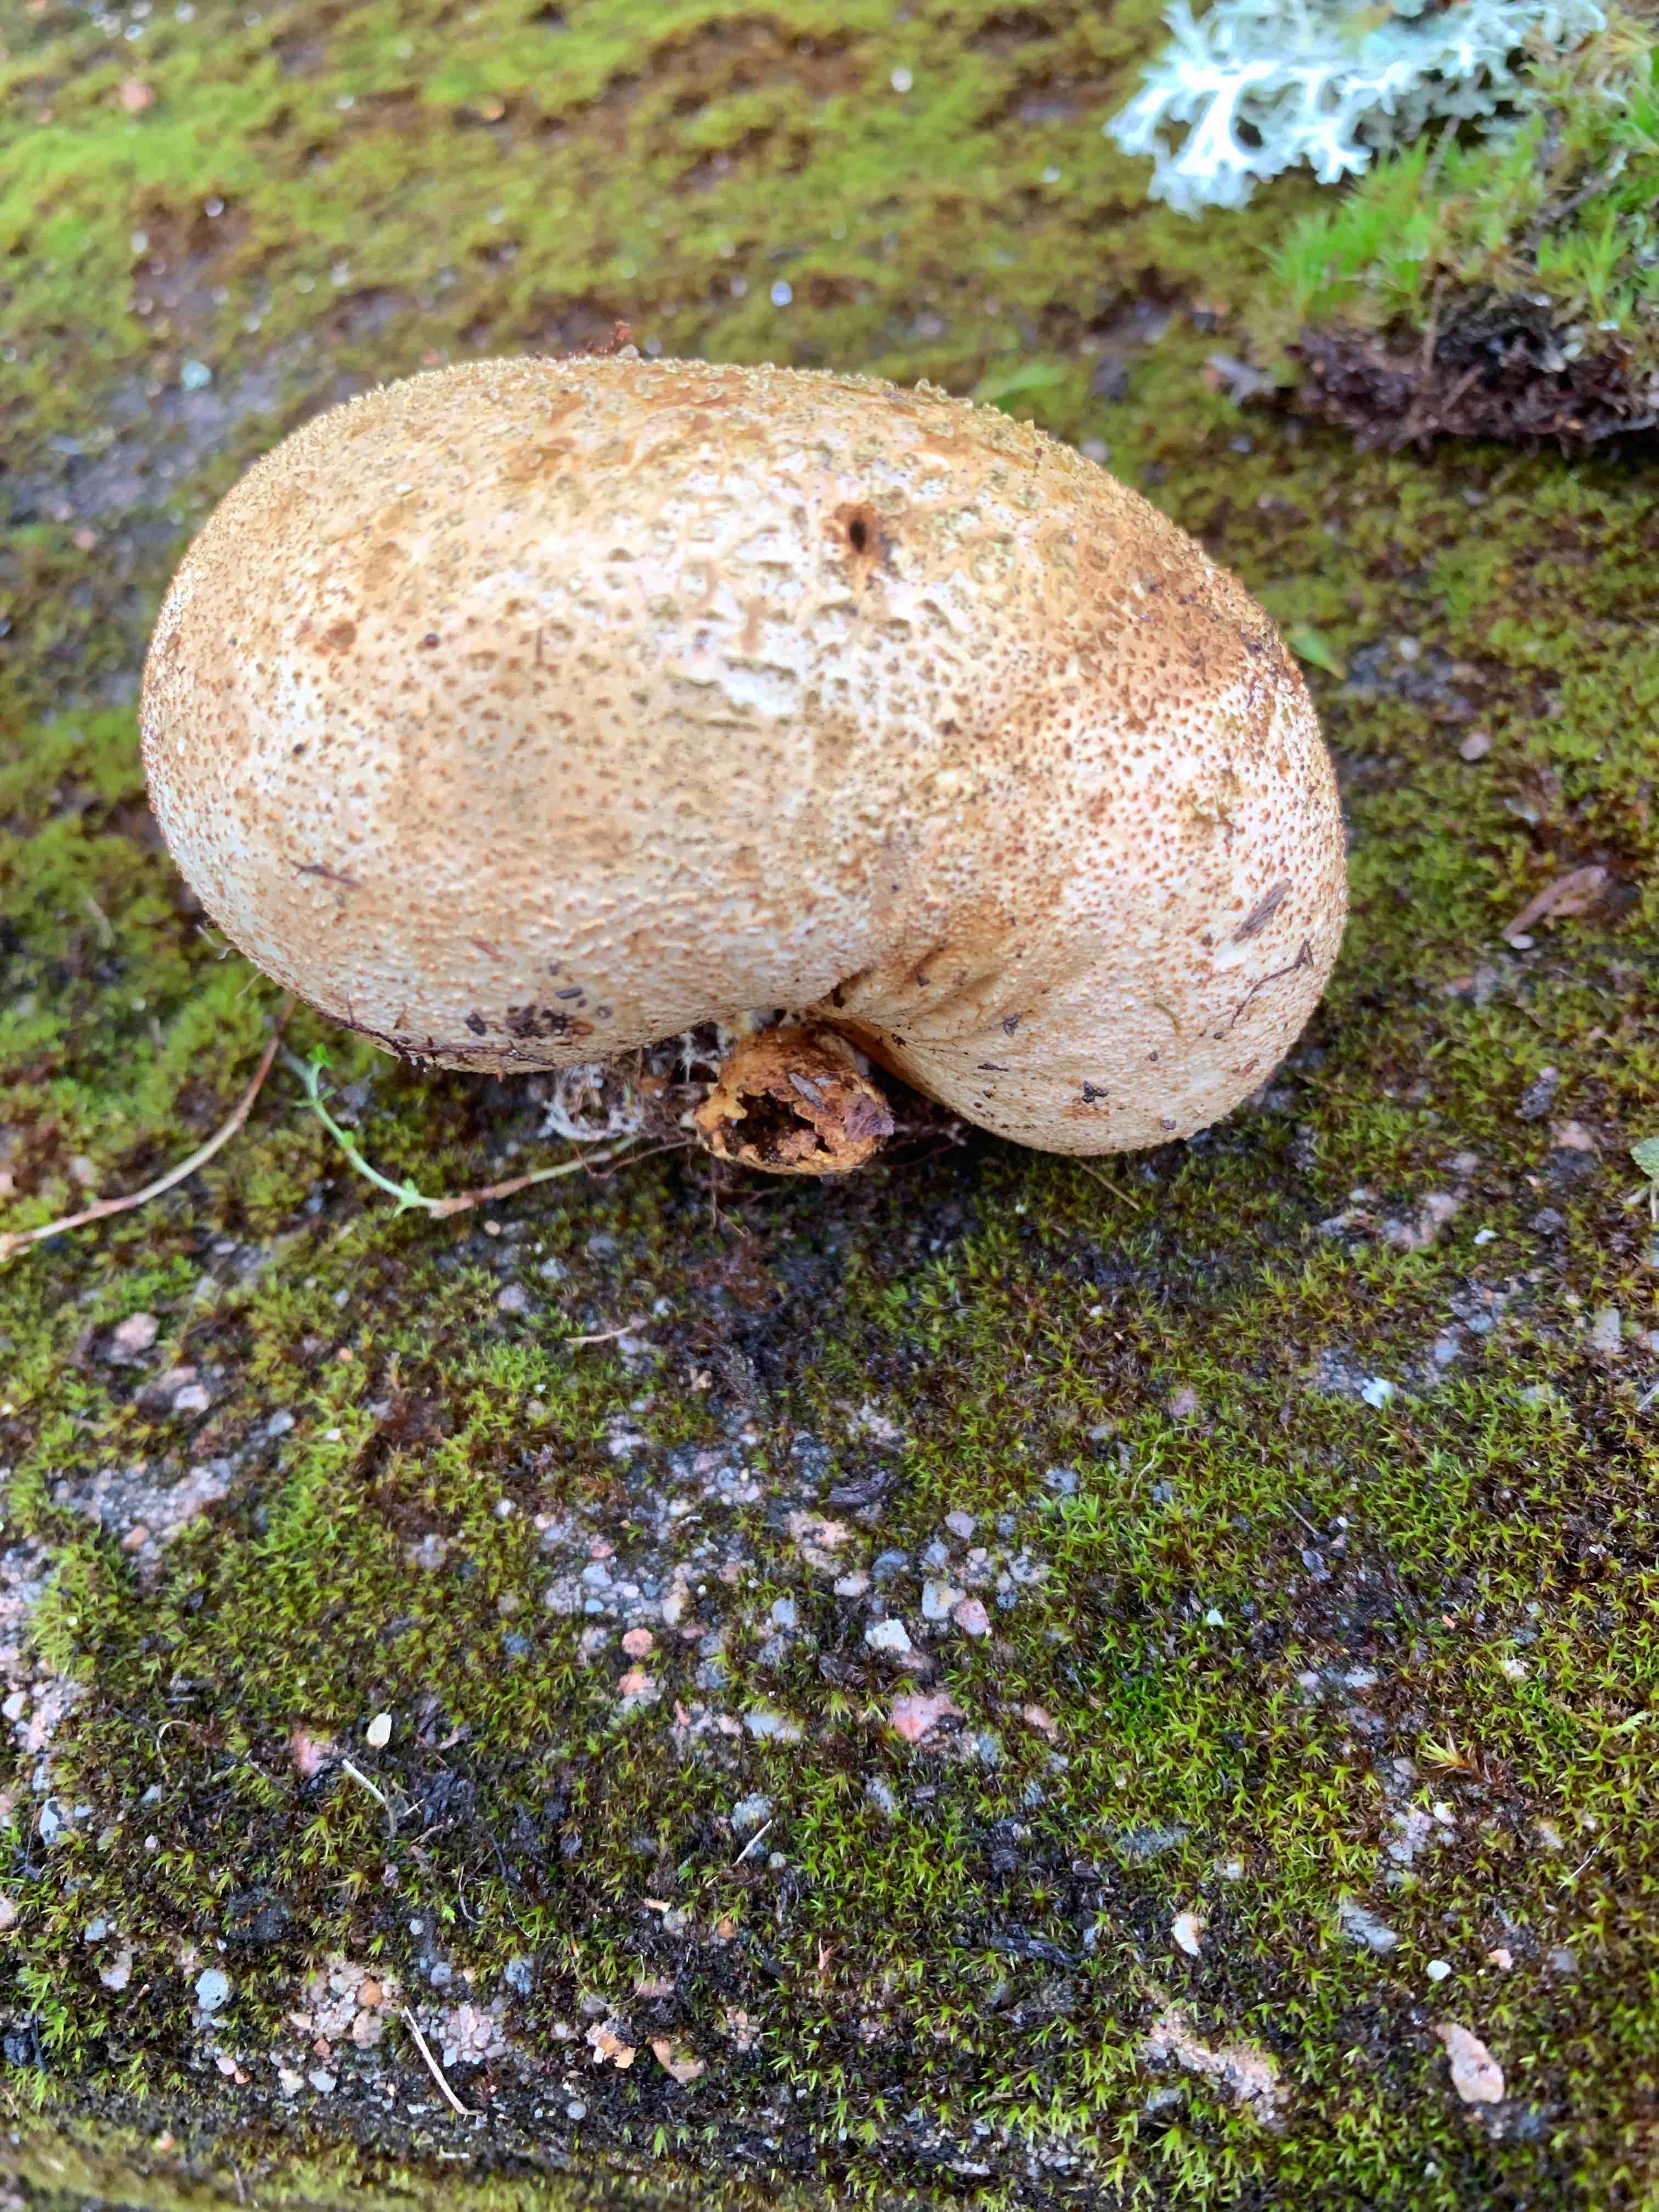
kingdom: Fungi
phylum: Basidiomycota
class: Agaricomycetes
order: Boletales
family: Sclerodermataceae
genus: Scleroderma
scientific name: Scleroderma citrinum
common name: almindelig bruskbold
